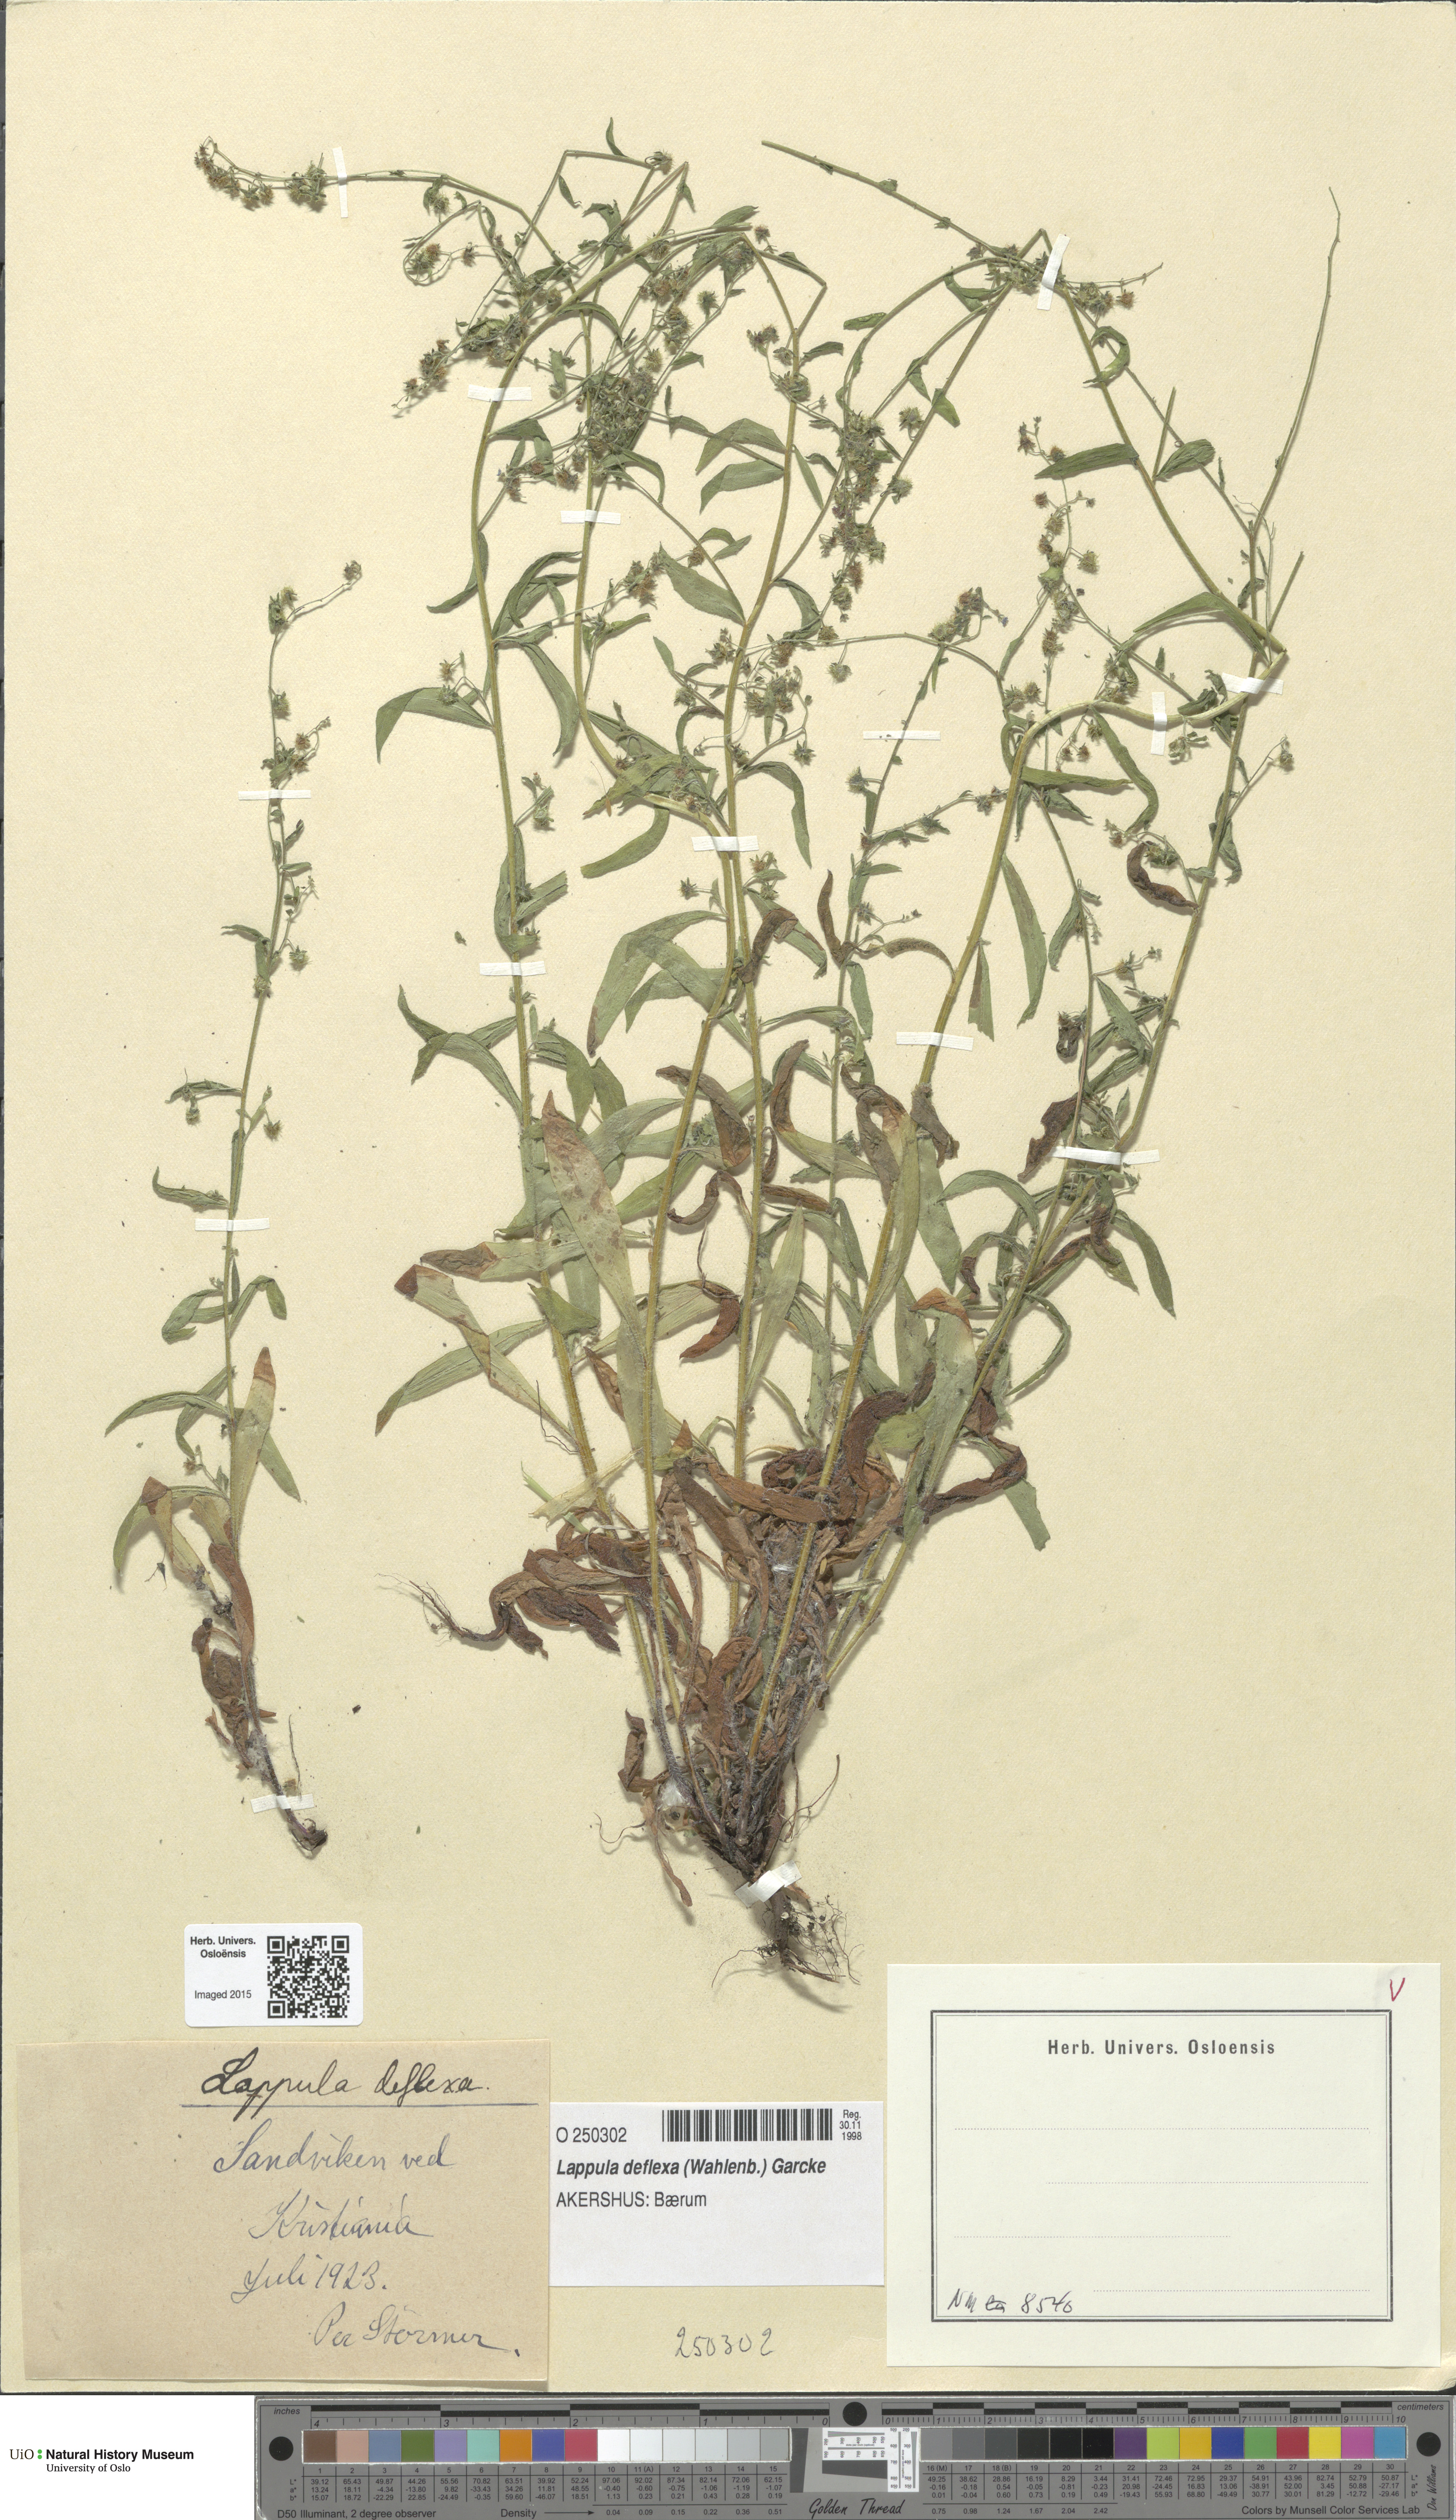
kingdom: Plantae
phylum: Tracheophyta
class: Magnoliopsida
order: Boraginales
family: Boraginaceae
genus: Hackelia
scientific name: Hackelia deflexa
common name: Nodding stickseed
